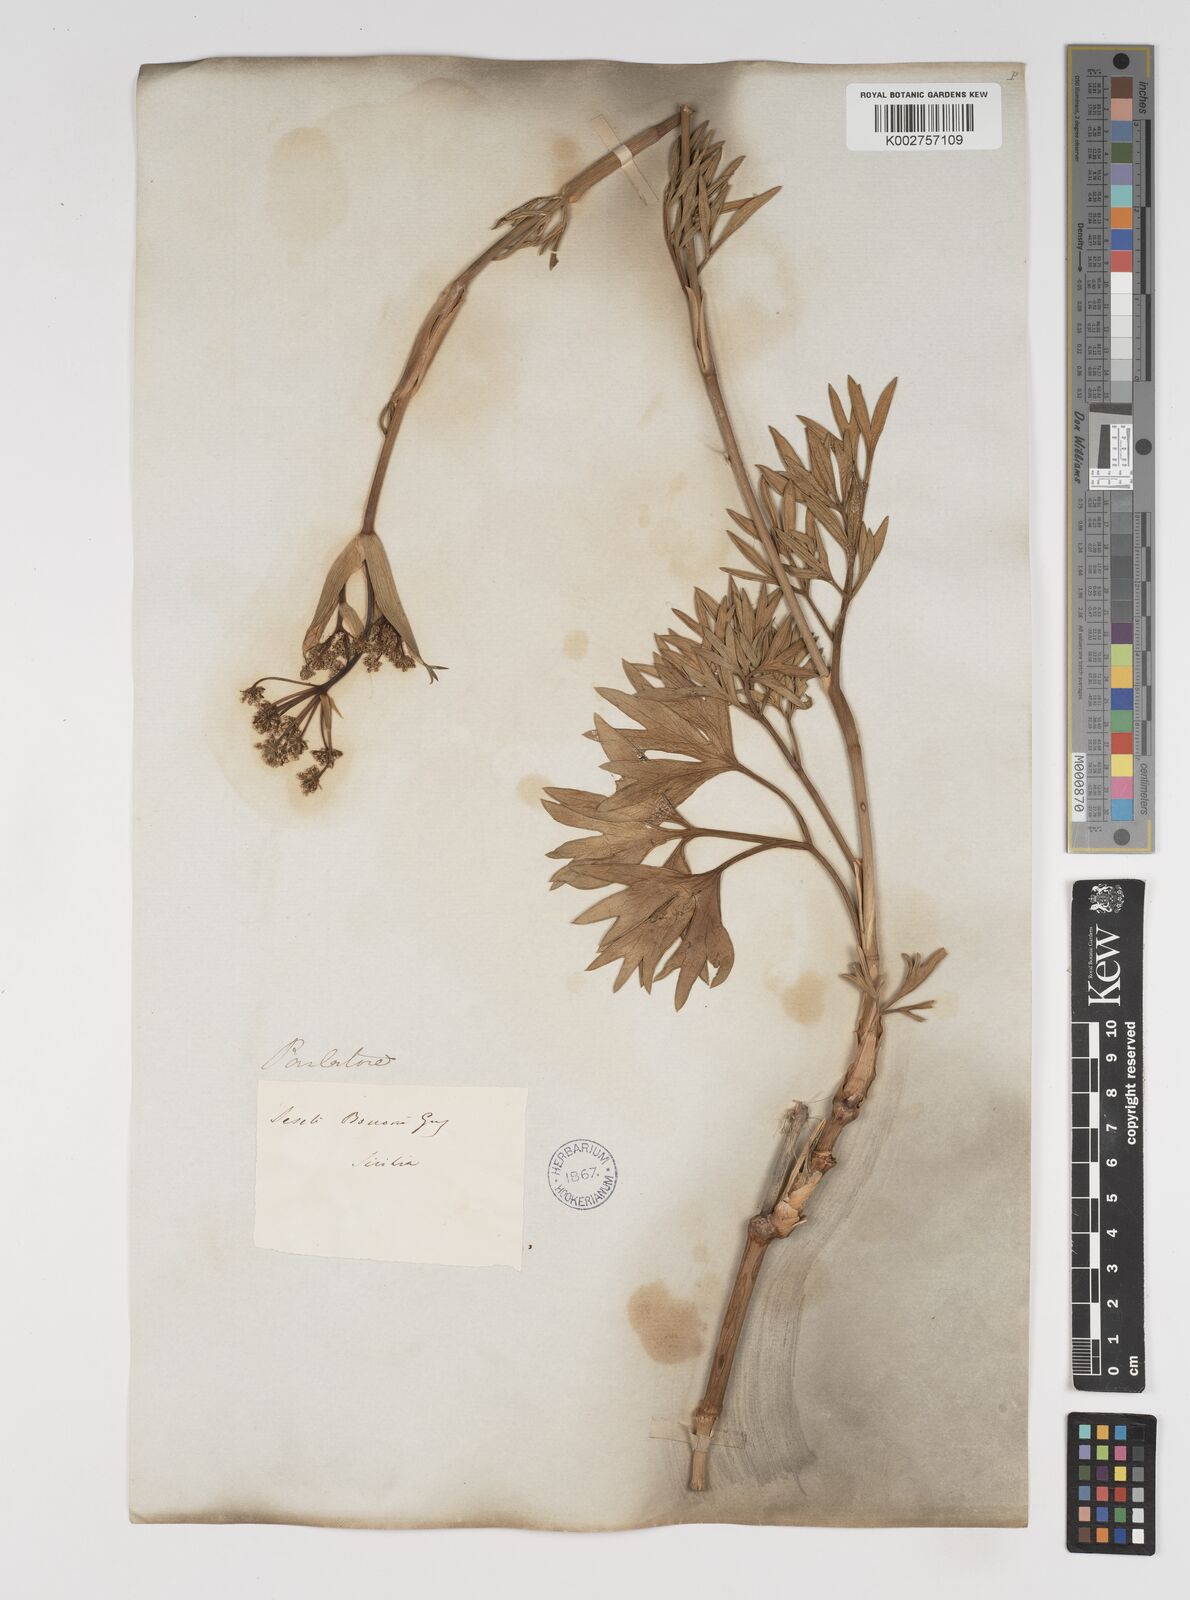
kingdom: Plantae
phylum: Tracheophyta
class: Magnoliopsida
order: Apiales
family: Apiaceae
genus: Seseli
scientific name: Seseli bocconei
